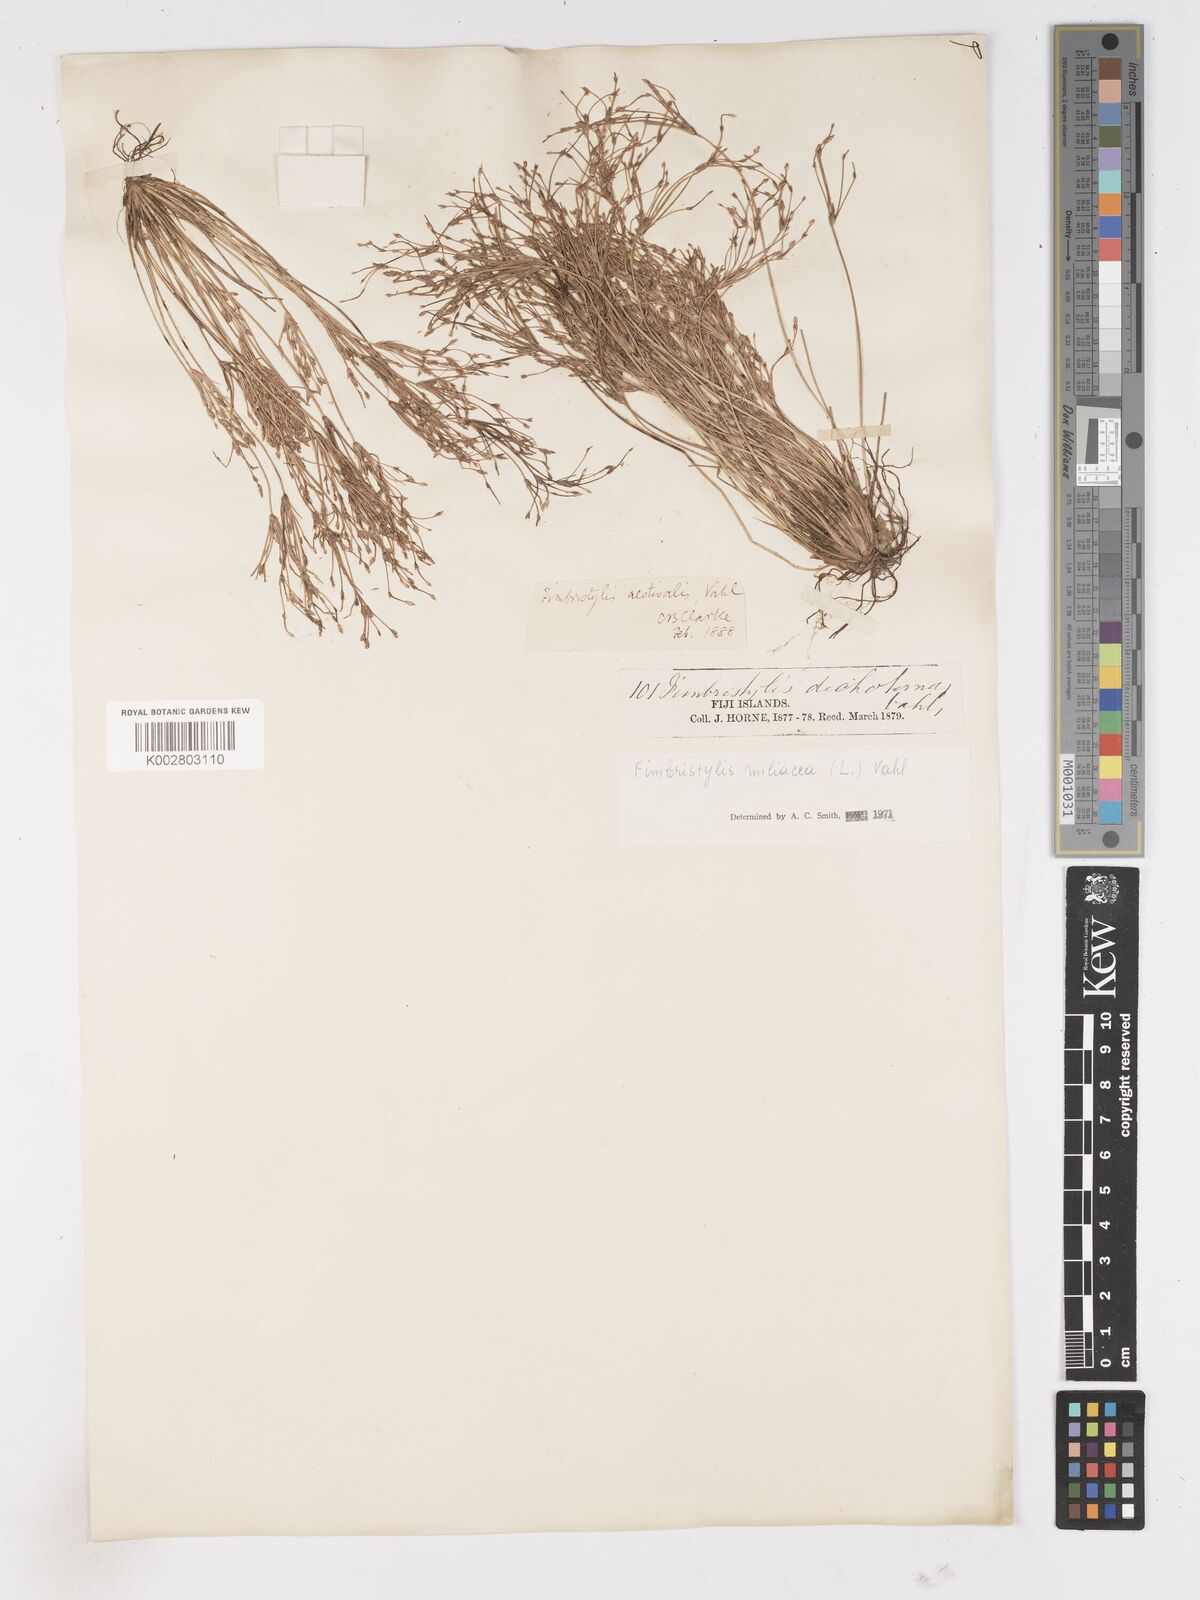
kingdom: Plantae
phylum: Tracheophyta
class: Liliopsida
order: Poales
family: Cyperaceae
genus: Fimbristylis
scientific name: Fimbristylis littoralis
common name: Fimbry
